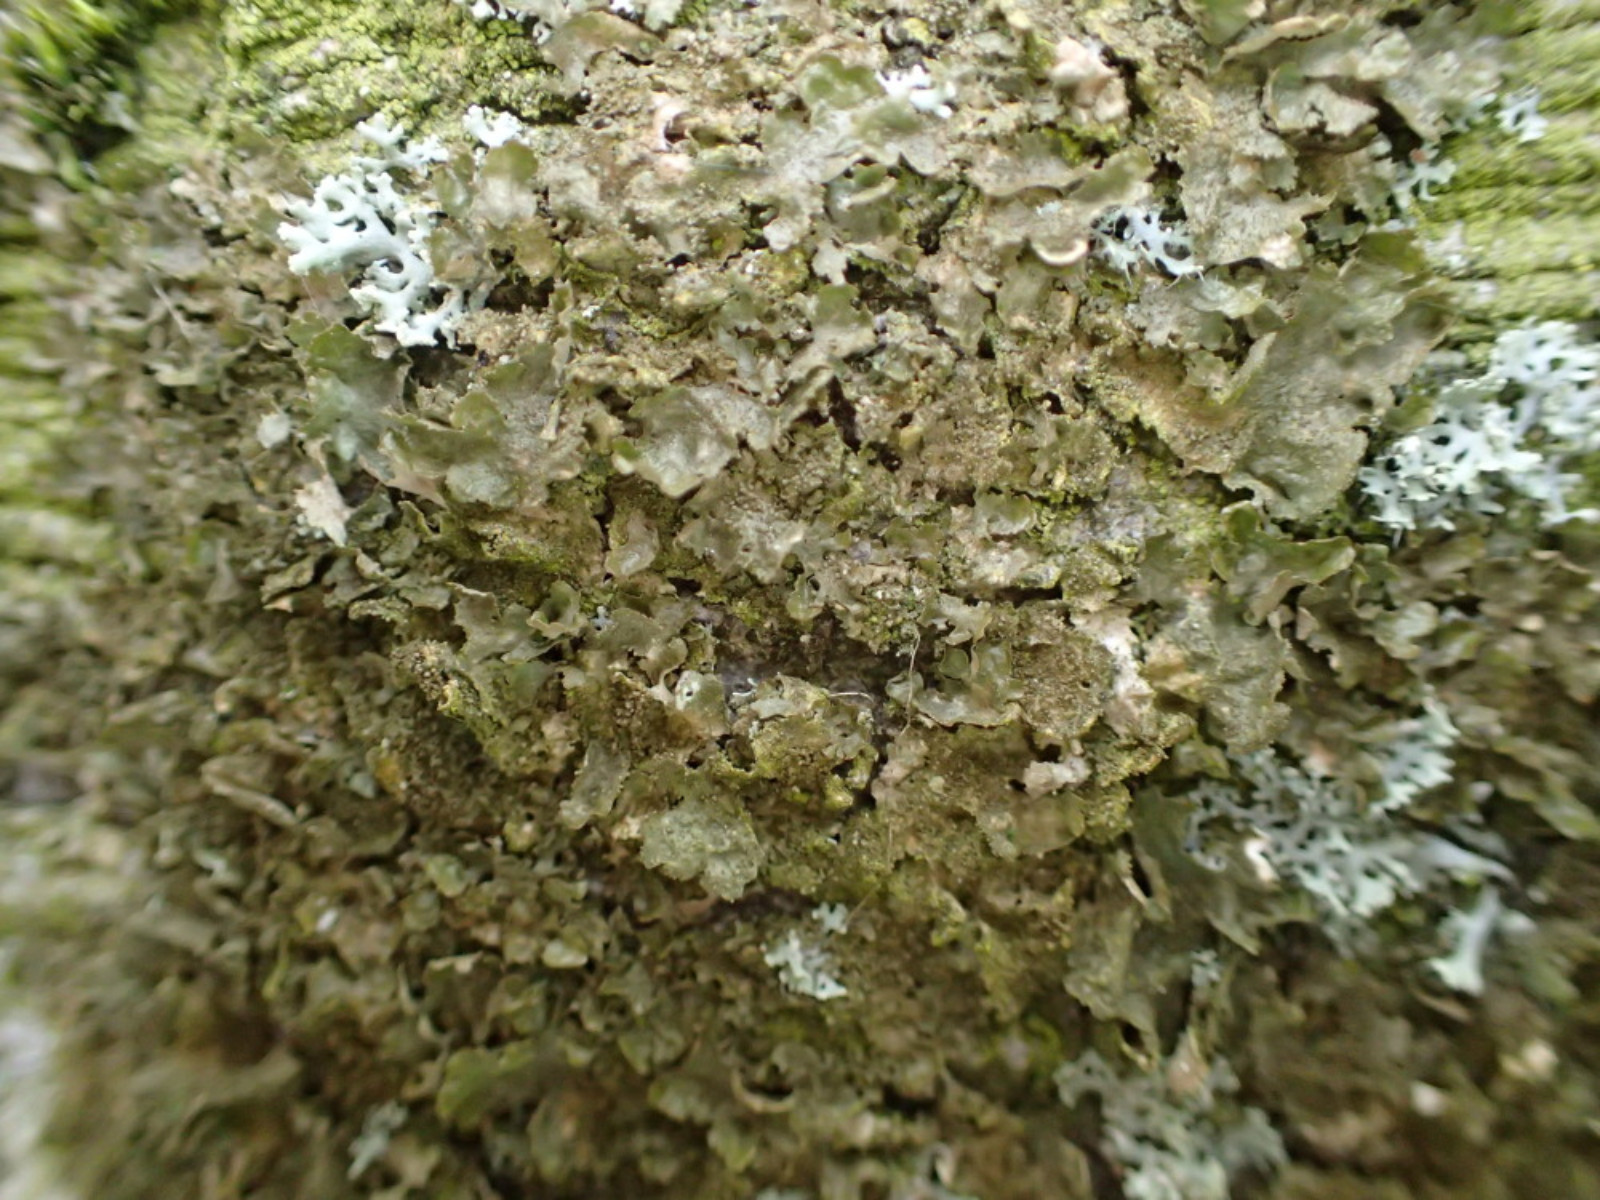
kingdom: Fungi
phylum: Ascomycota
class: Lecanoromycetes
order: Lecanorales
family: Parmeliaceae
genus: Melanohalea
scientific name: Melanohalea exasperatula
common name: kølle-skållav
